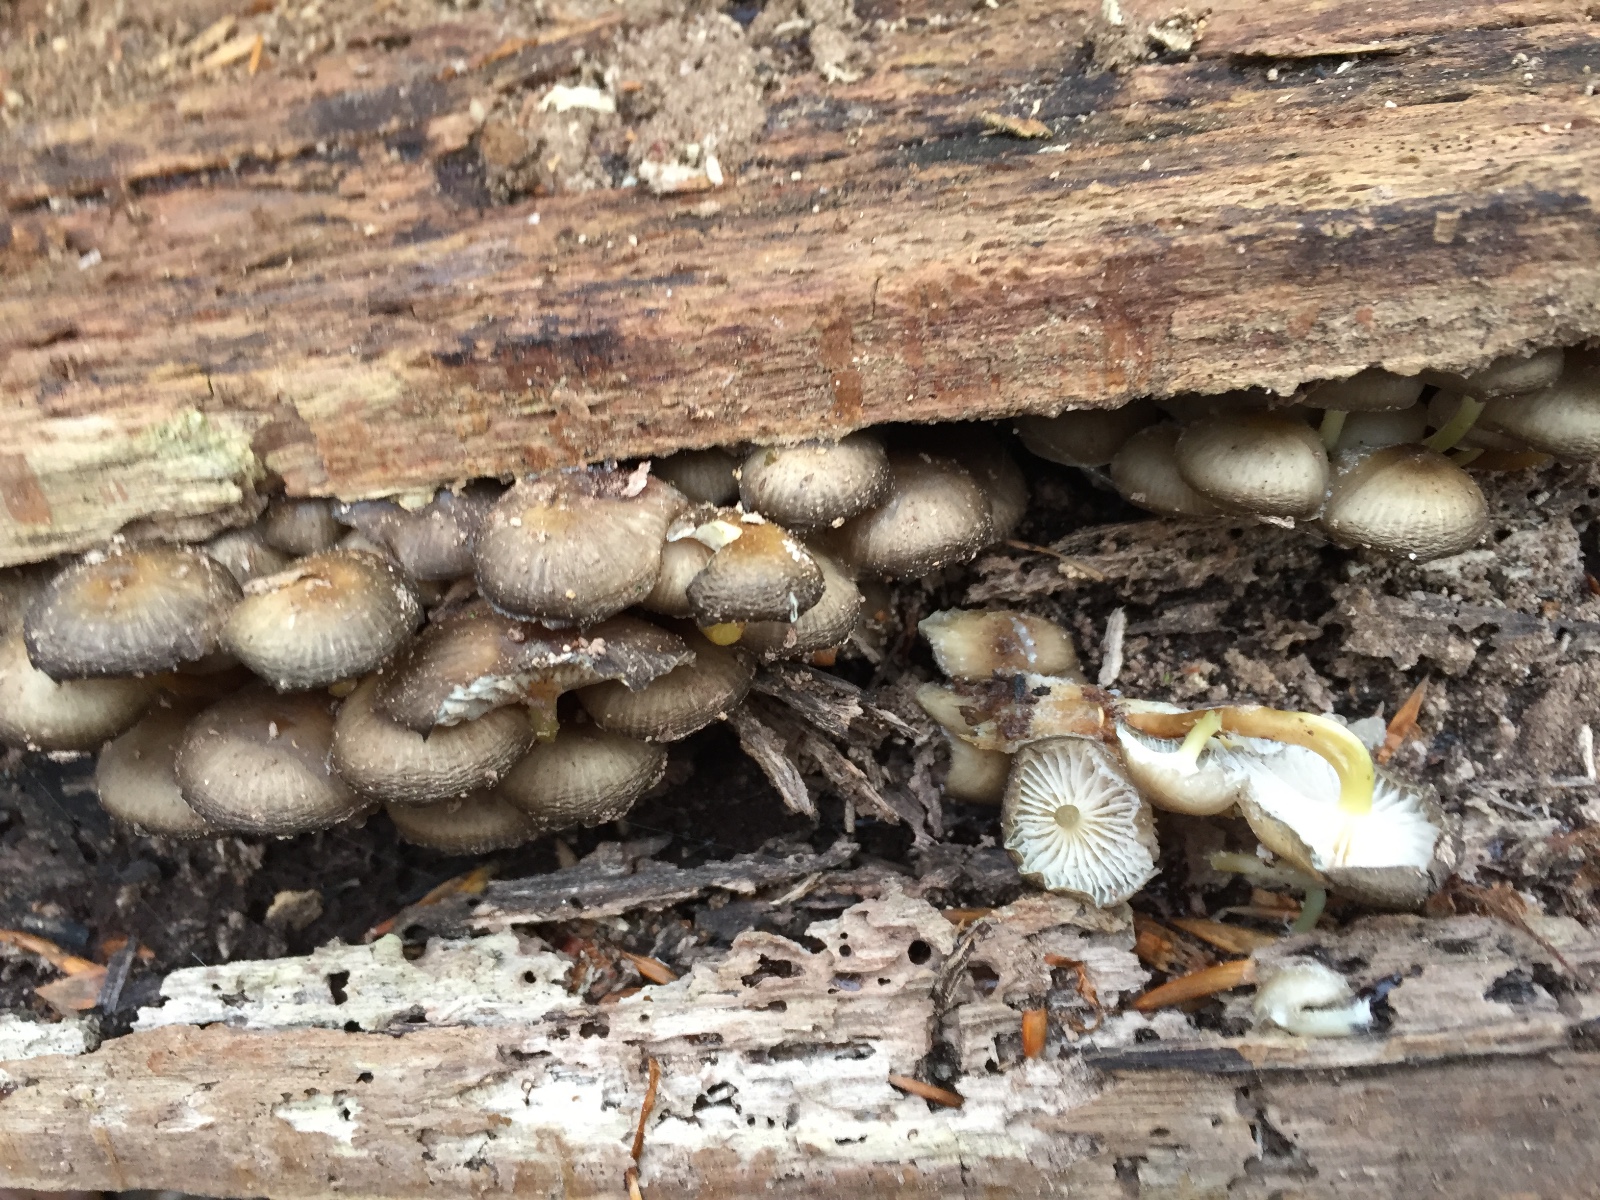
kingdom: Fungi
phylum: Basidiomycota
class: Agaricomycetes
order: Agaricales
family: Mycenaceae
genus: Mycena
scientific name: Mycena tintinnabulum
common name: vinter-huesvamp
